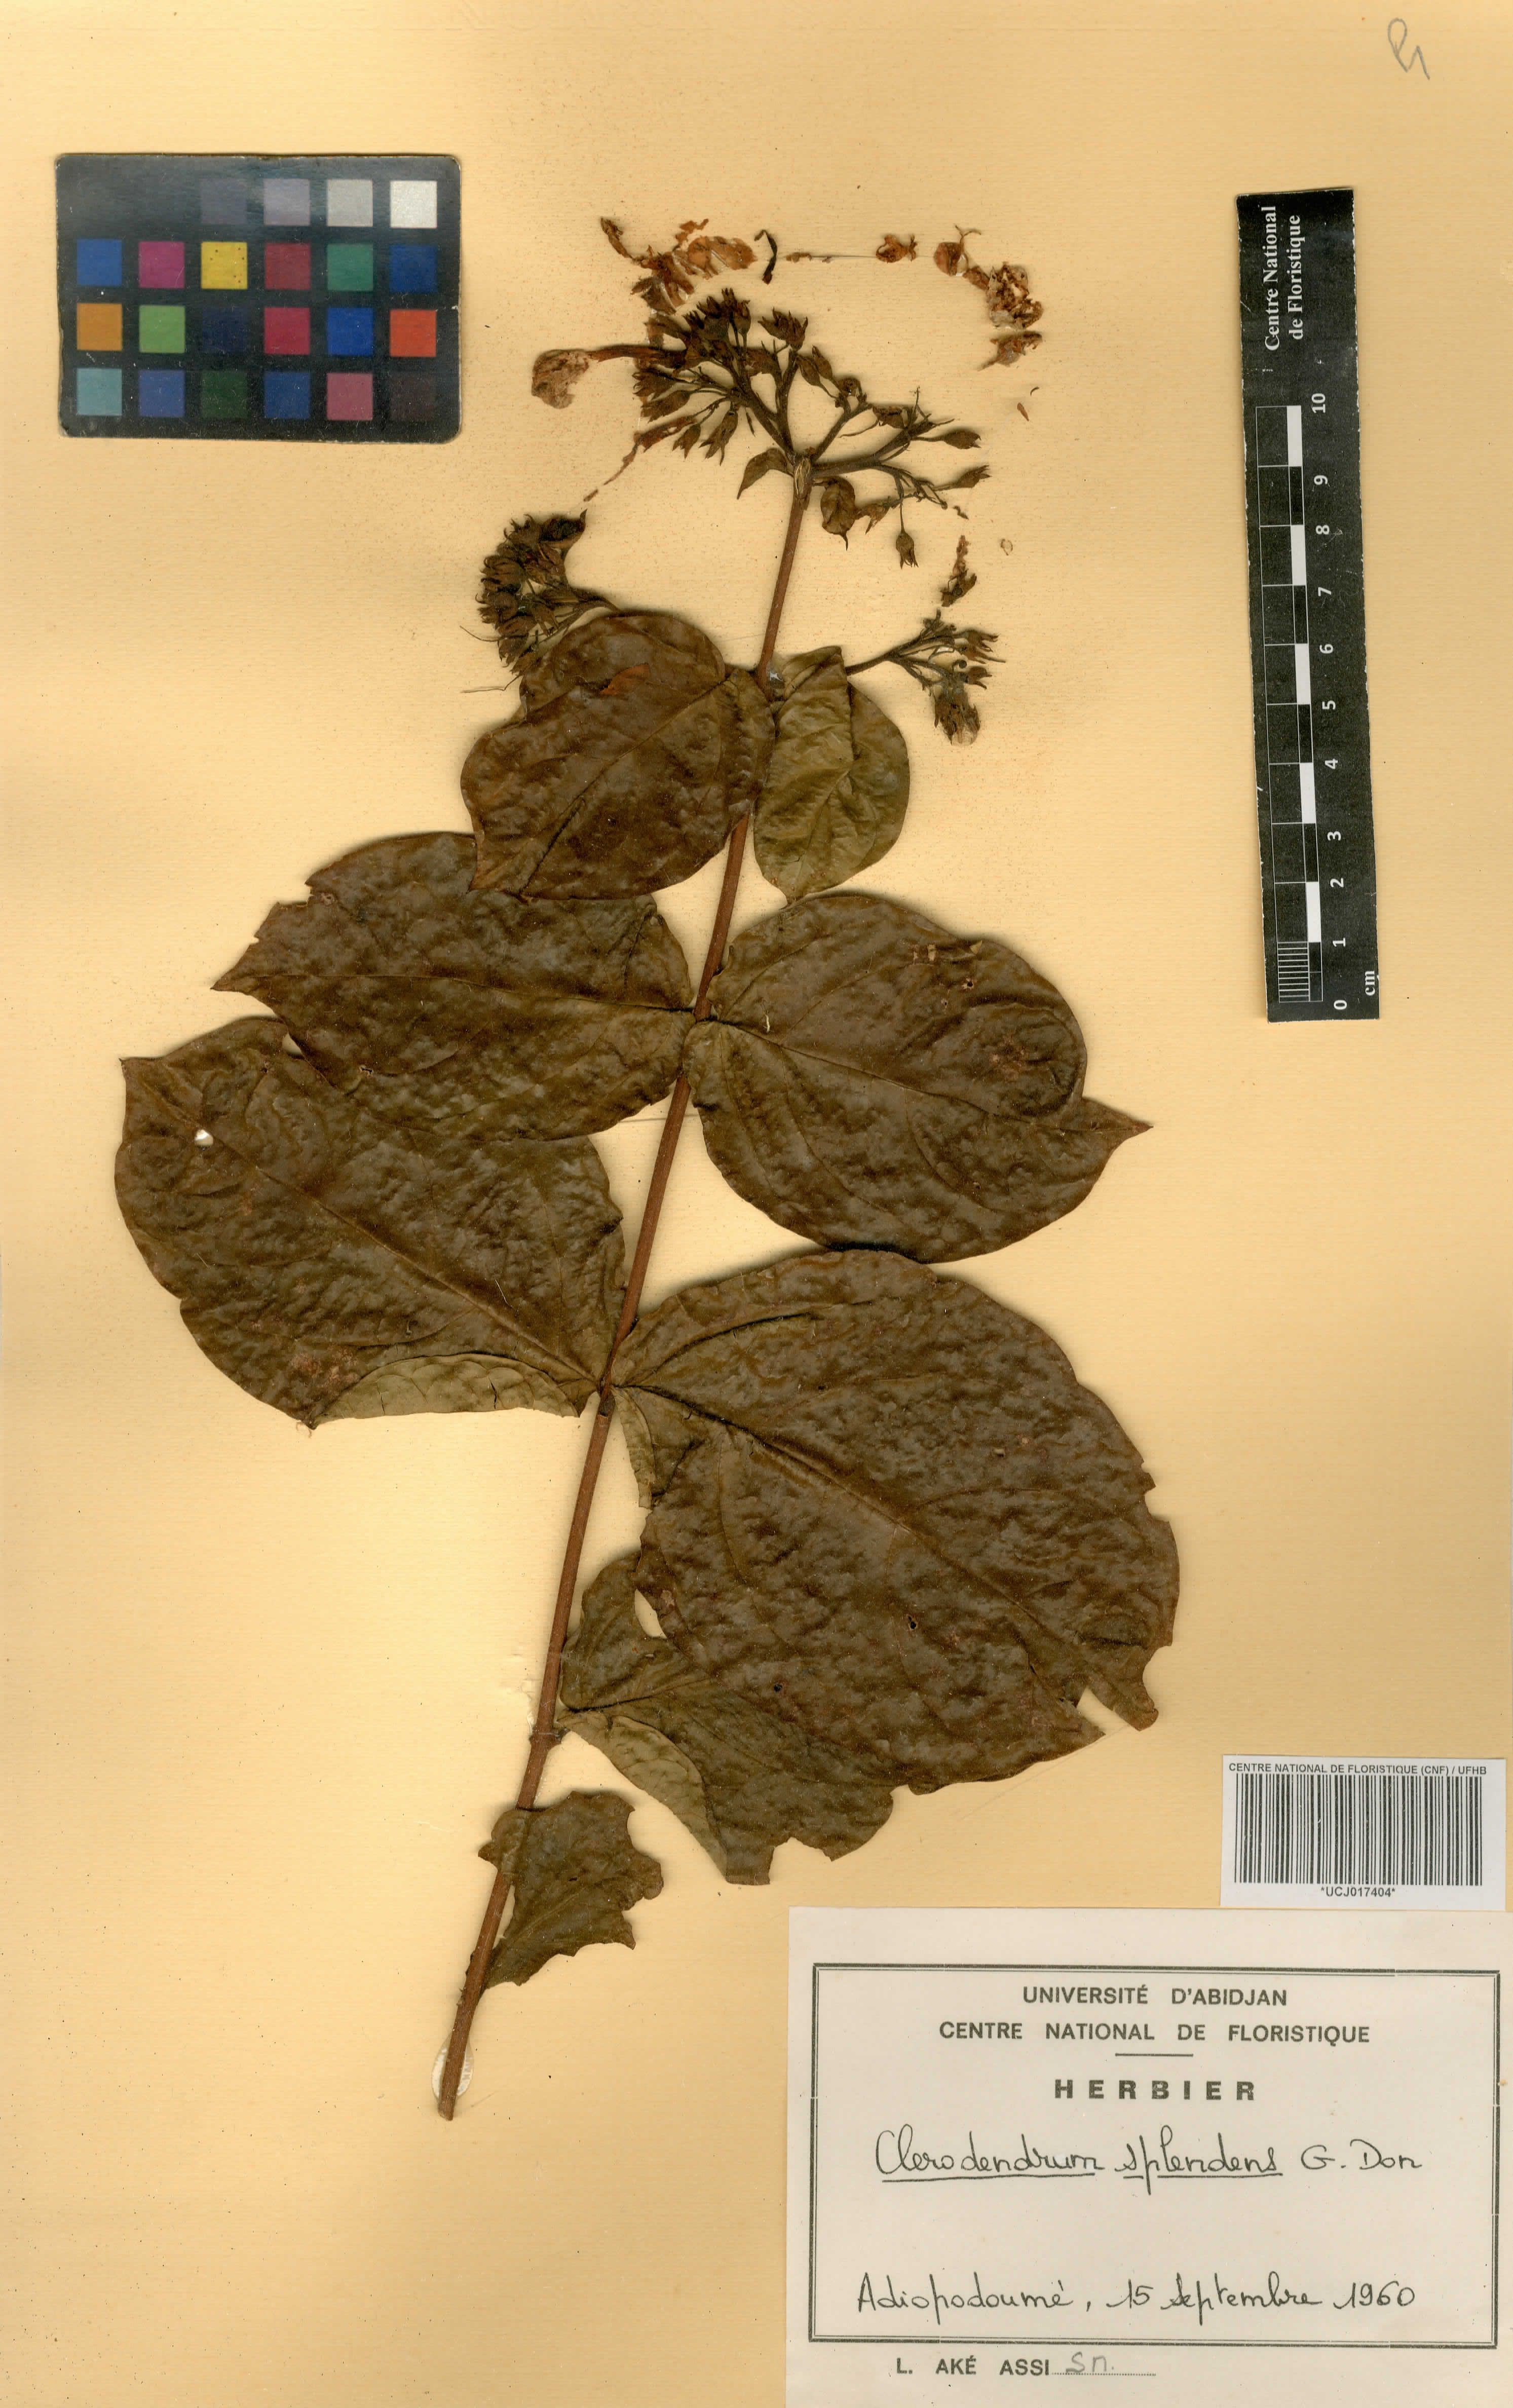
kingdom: Plantae
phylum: Tracheophyta
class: Magnoliopsida
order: Lamiales
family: Lamiaceae
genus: Clerodendrum
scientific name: Clerodendrum splendens
